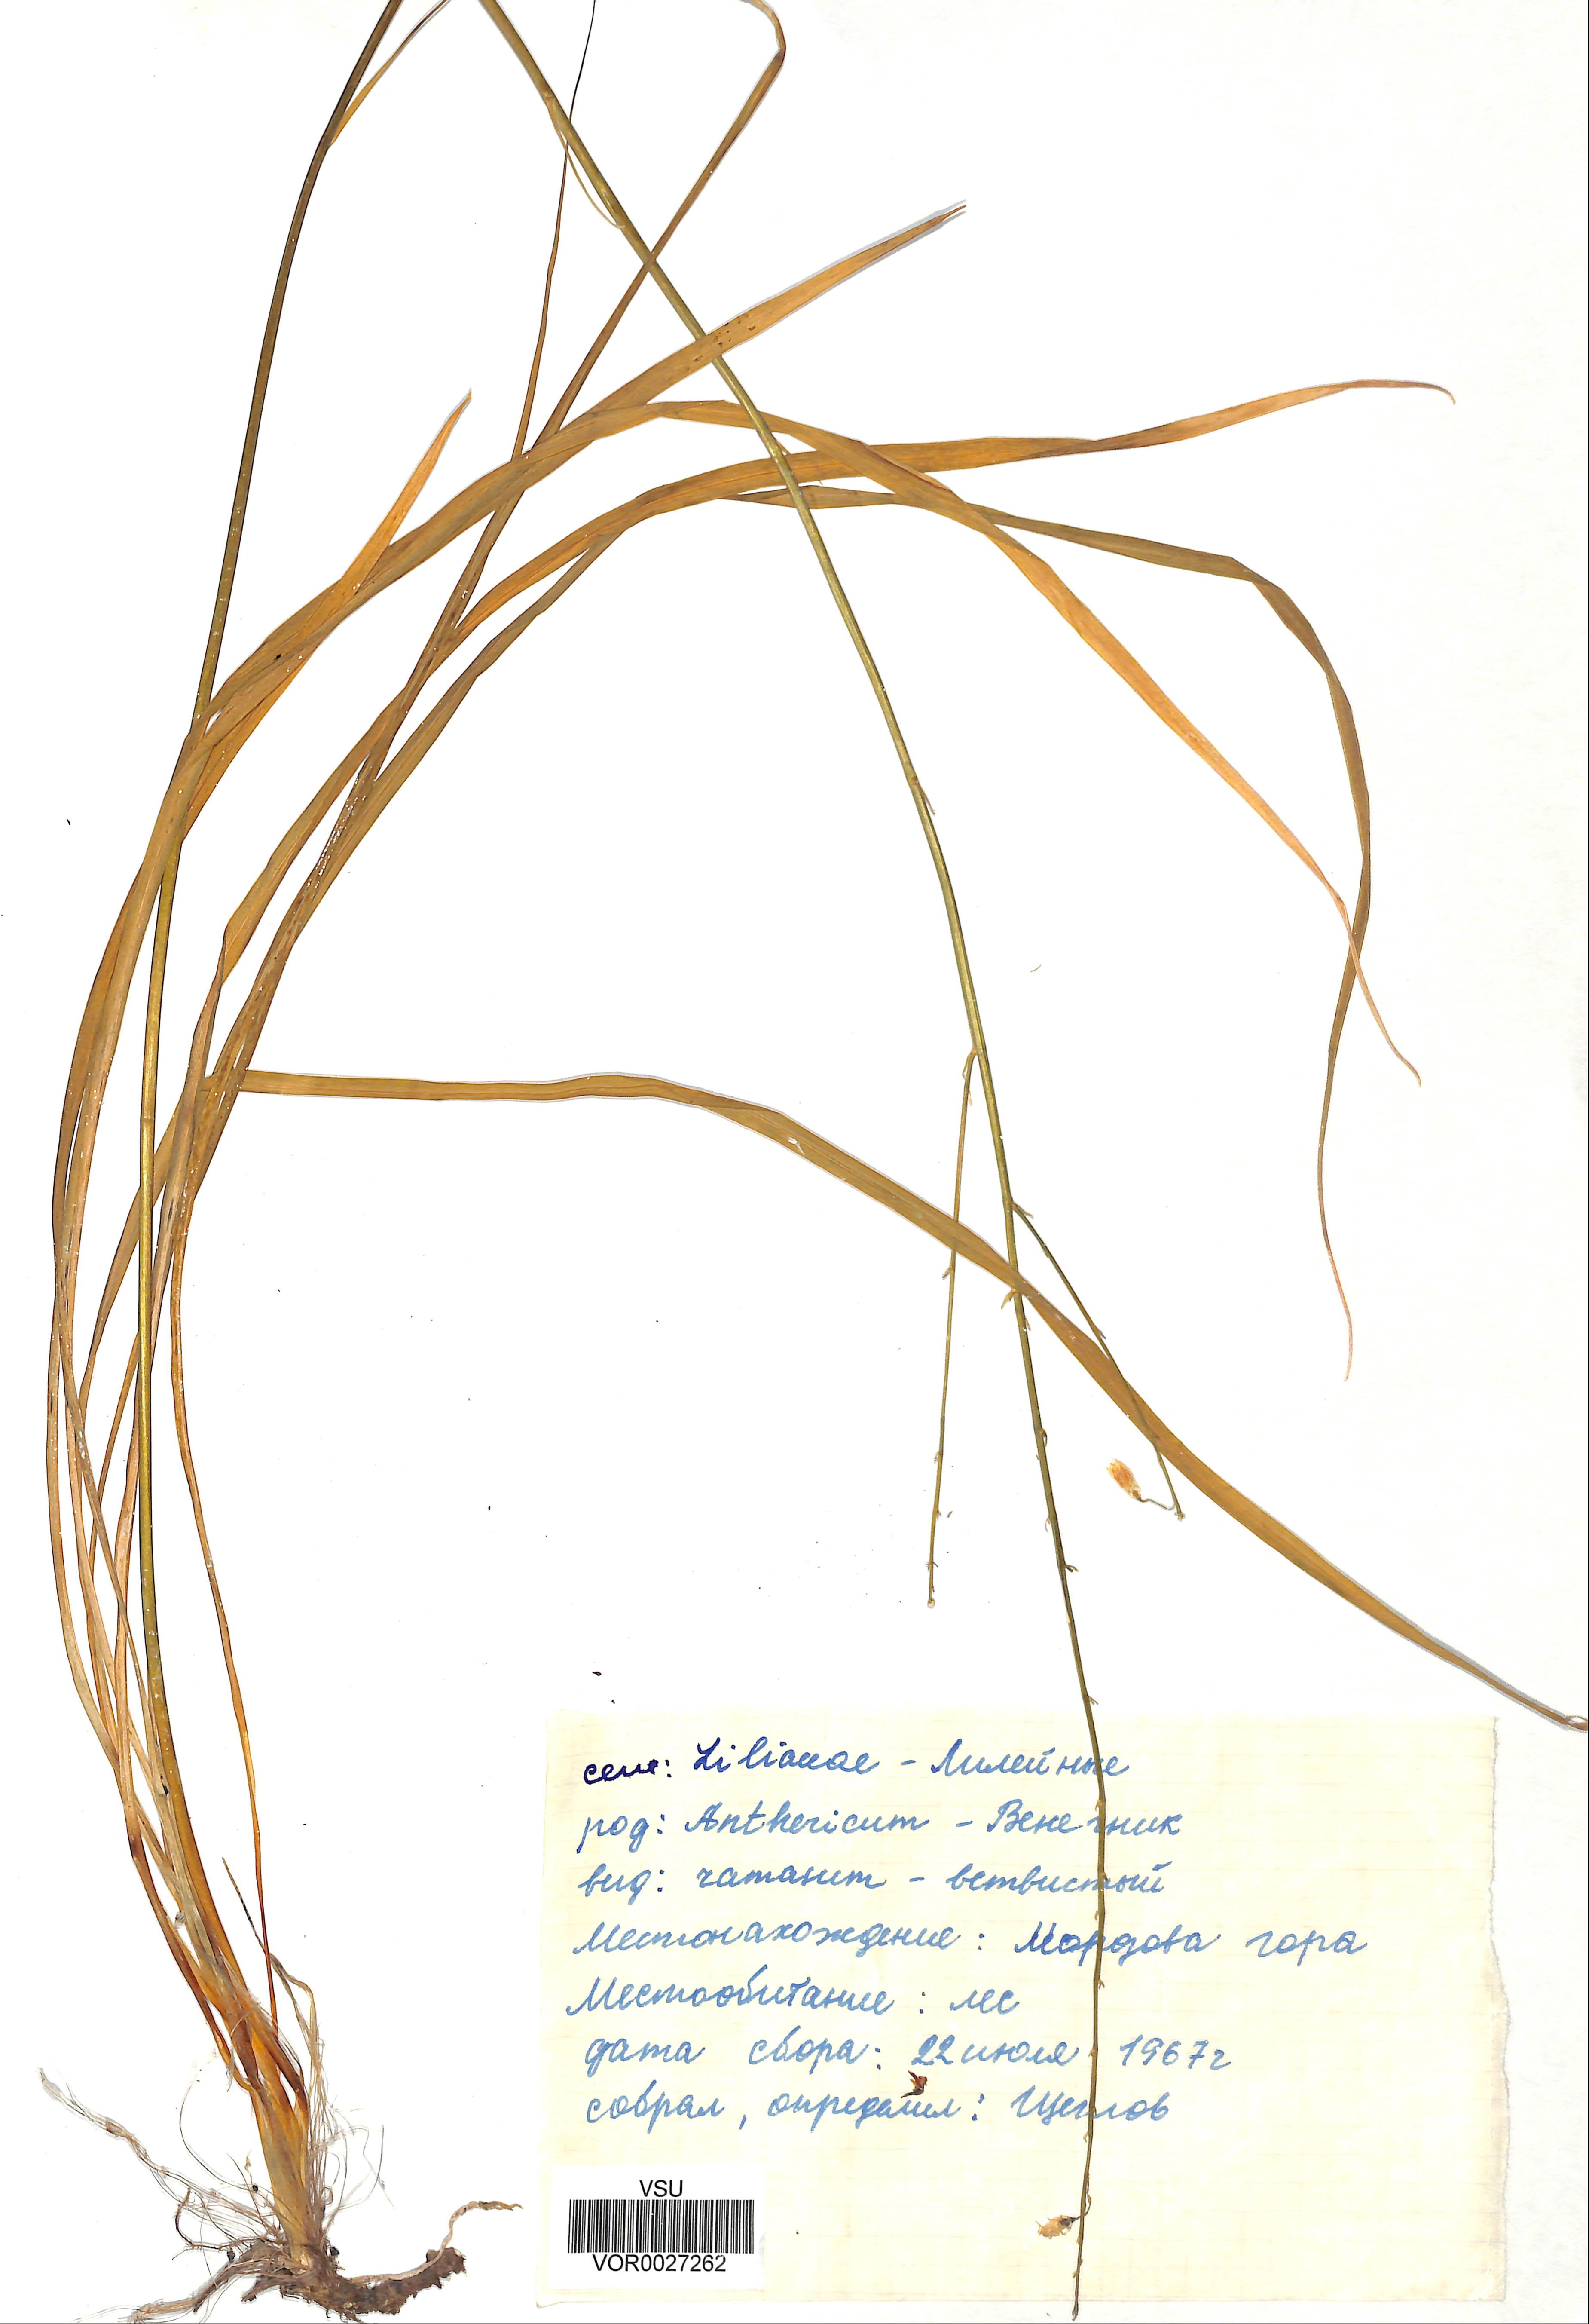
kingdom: Plantae
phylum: Tracheophyta
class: Liliopsida
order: Asparagales
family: Asparagaceae
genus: Anthericum
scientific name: Anthericum ramosum
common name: Branched st. bernard's-lily
